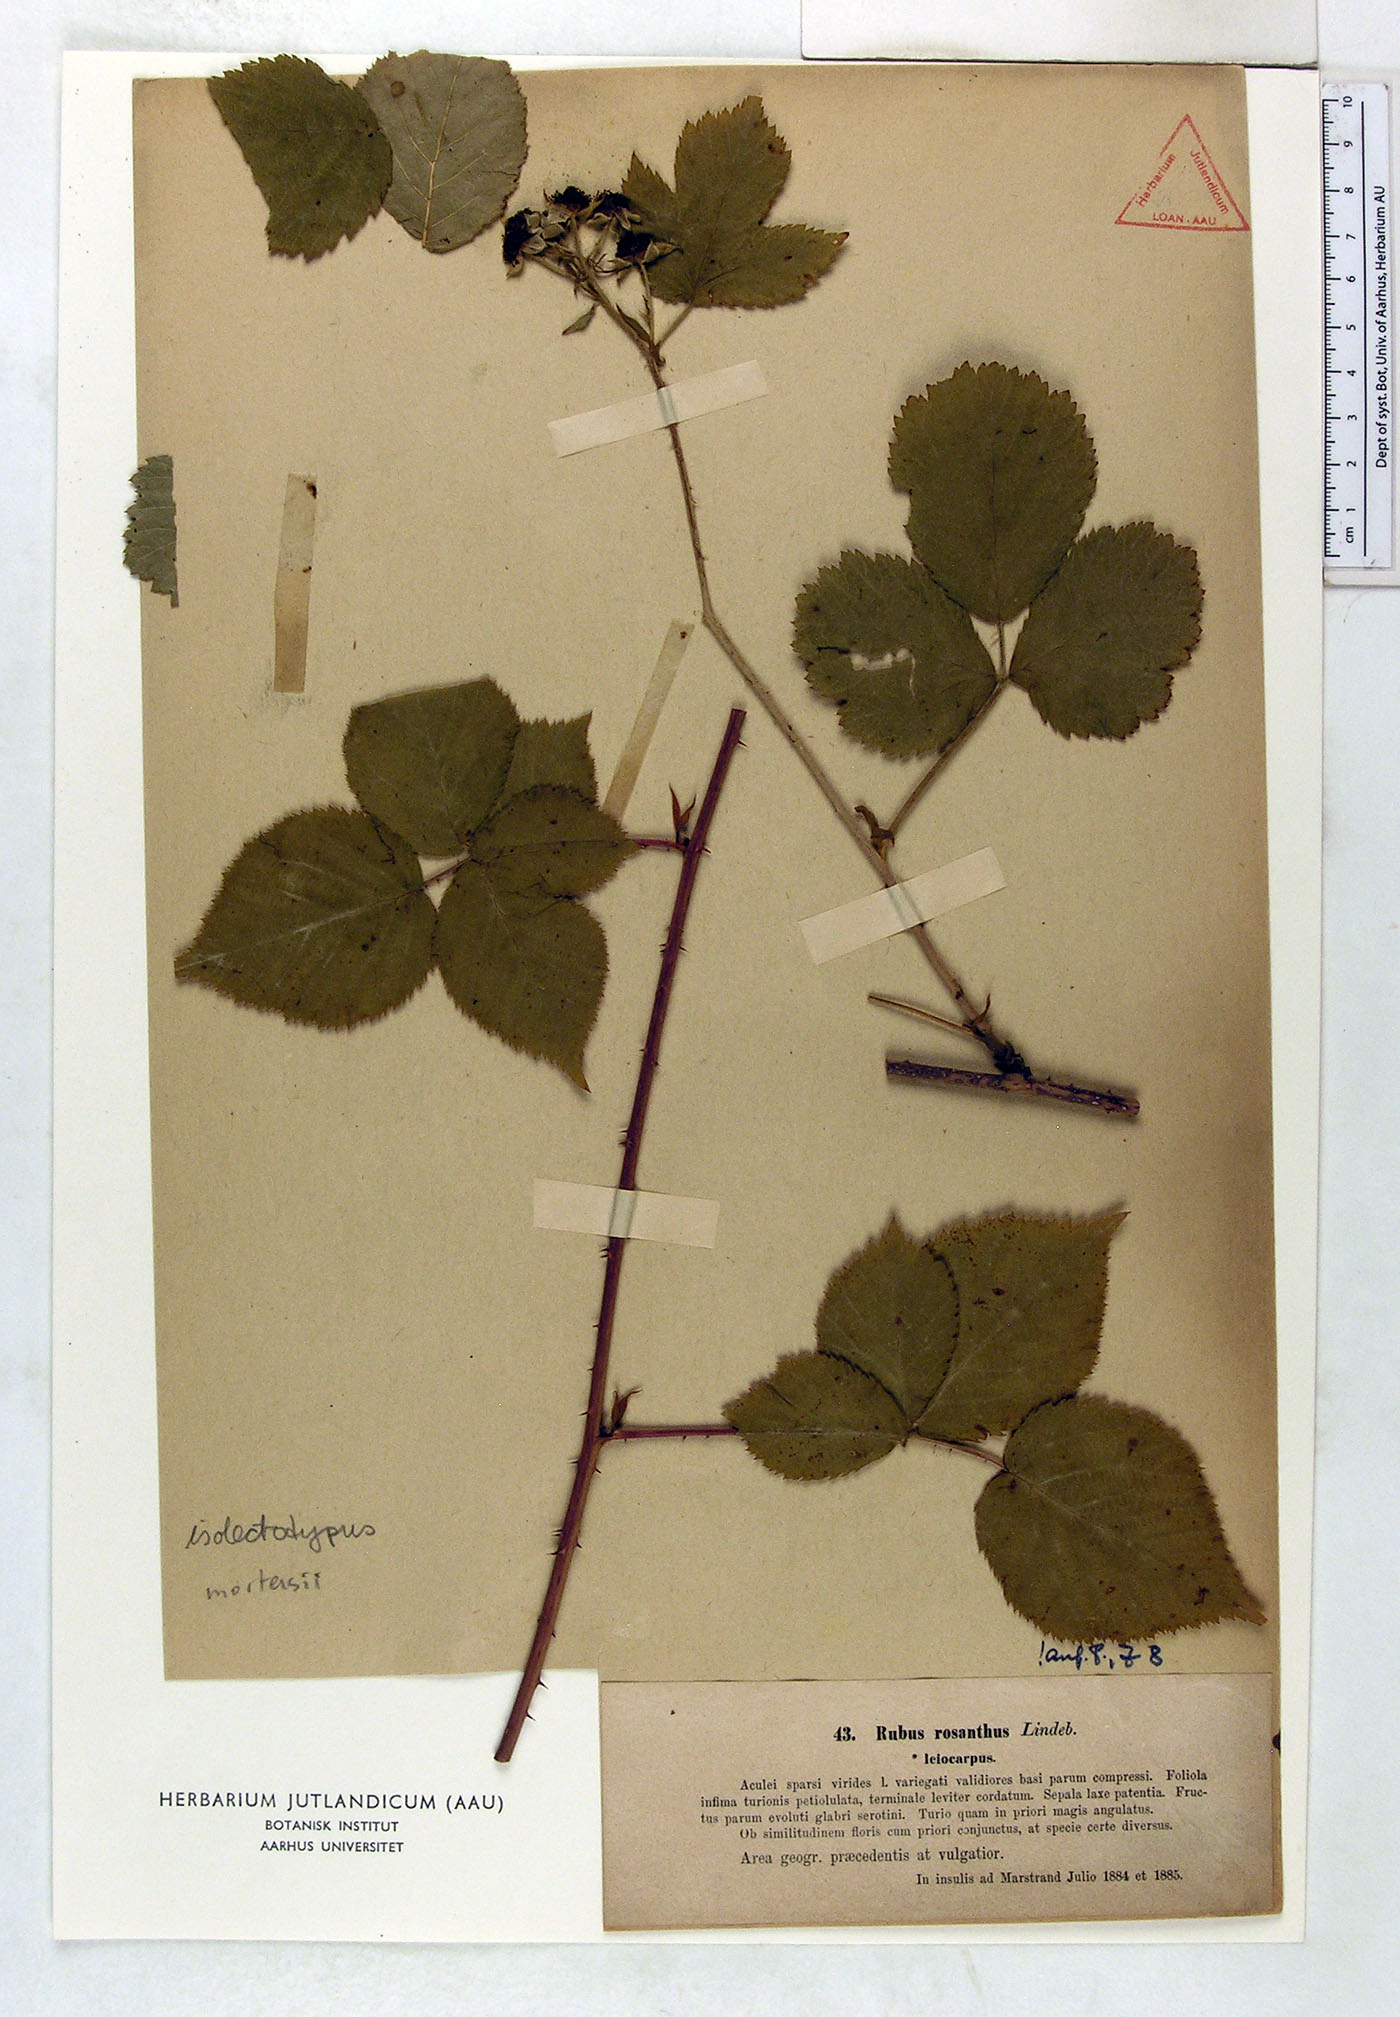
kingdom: Plantae
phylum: Tracheophyta
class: Magnoliopsida
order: Rosales
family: Rosaceae
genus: Rubus
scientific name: Rubus rosanthus
